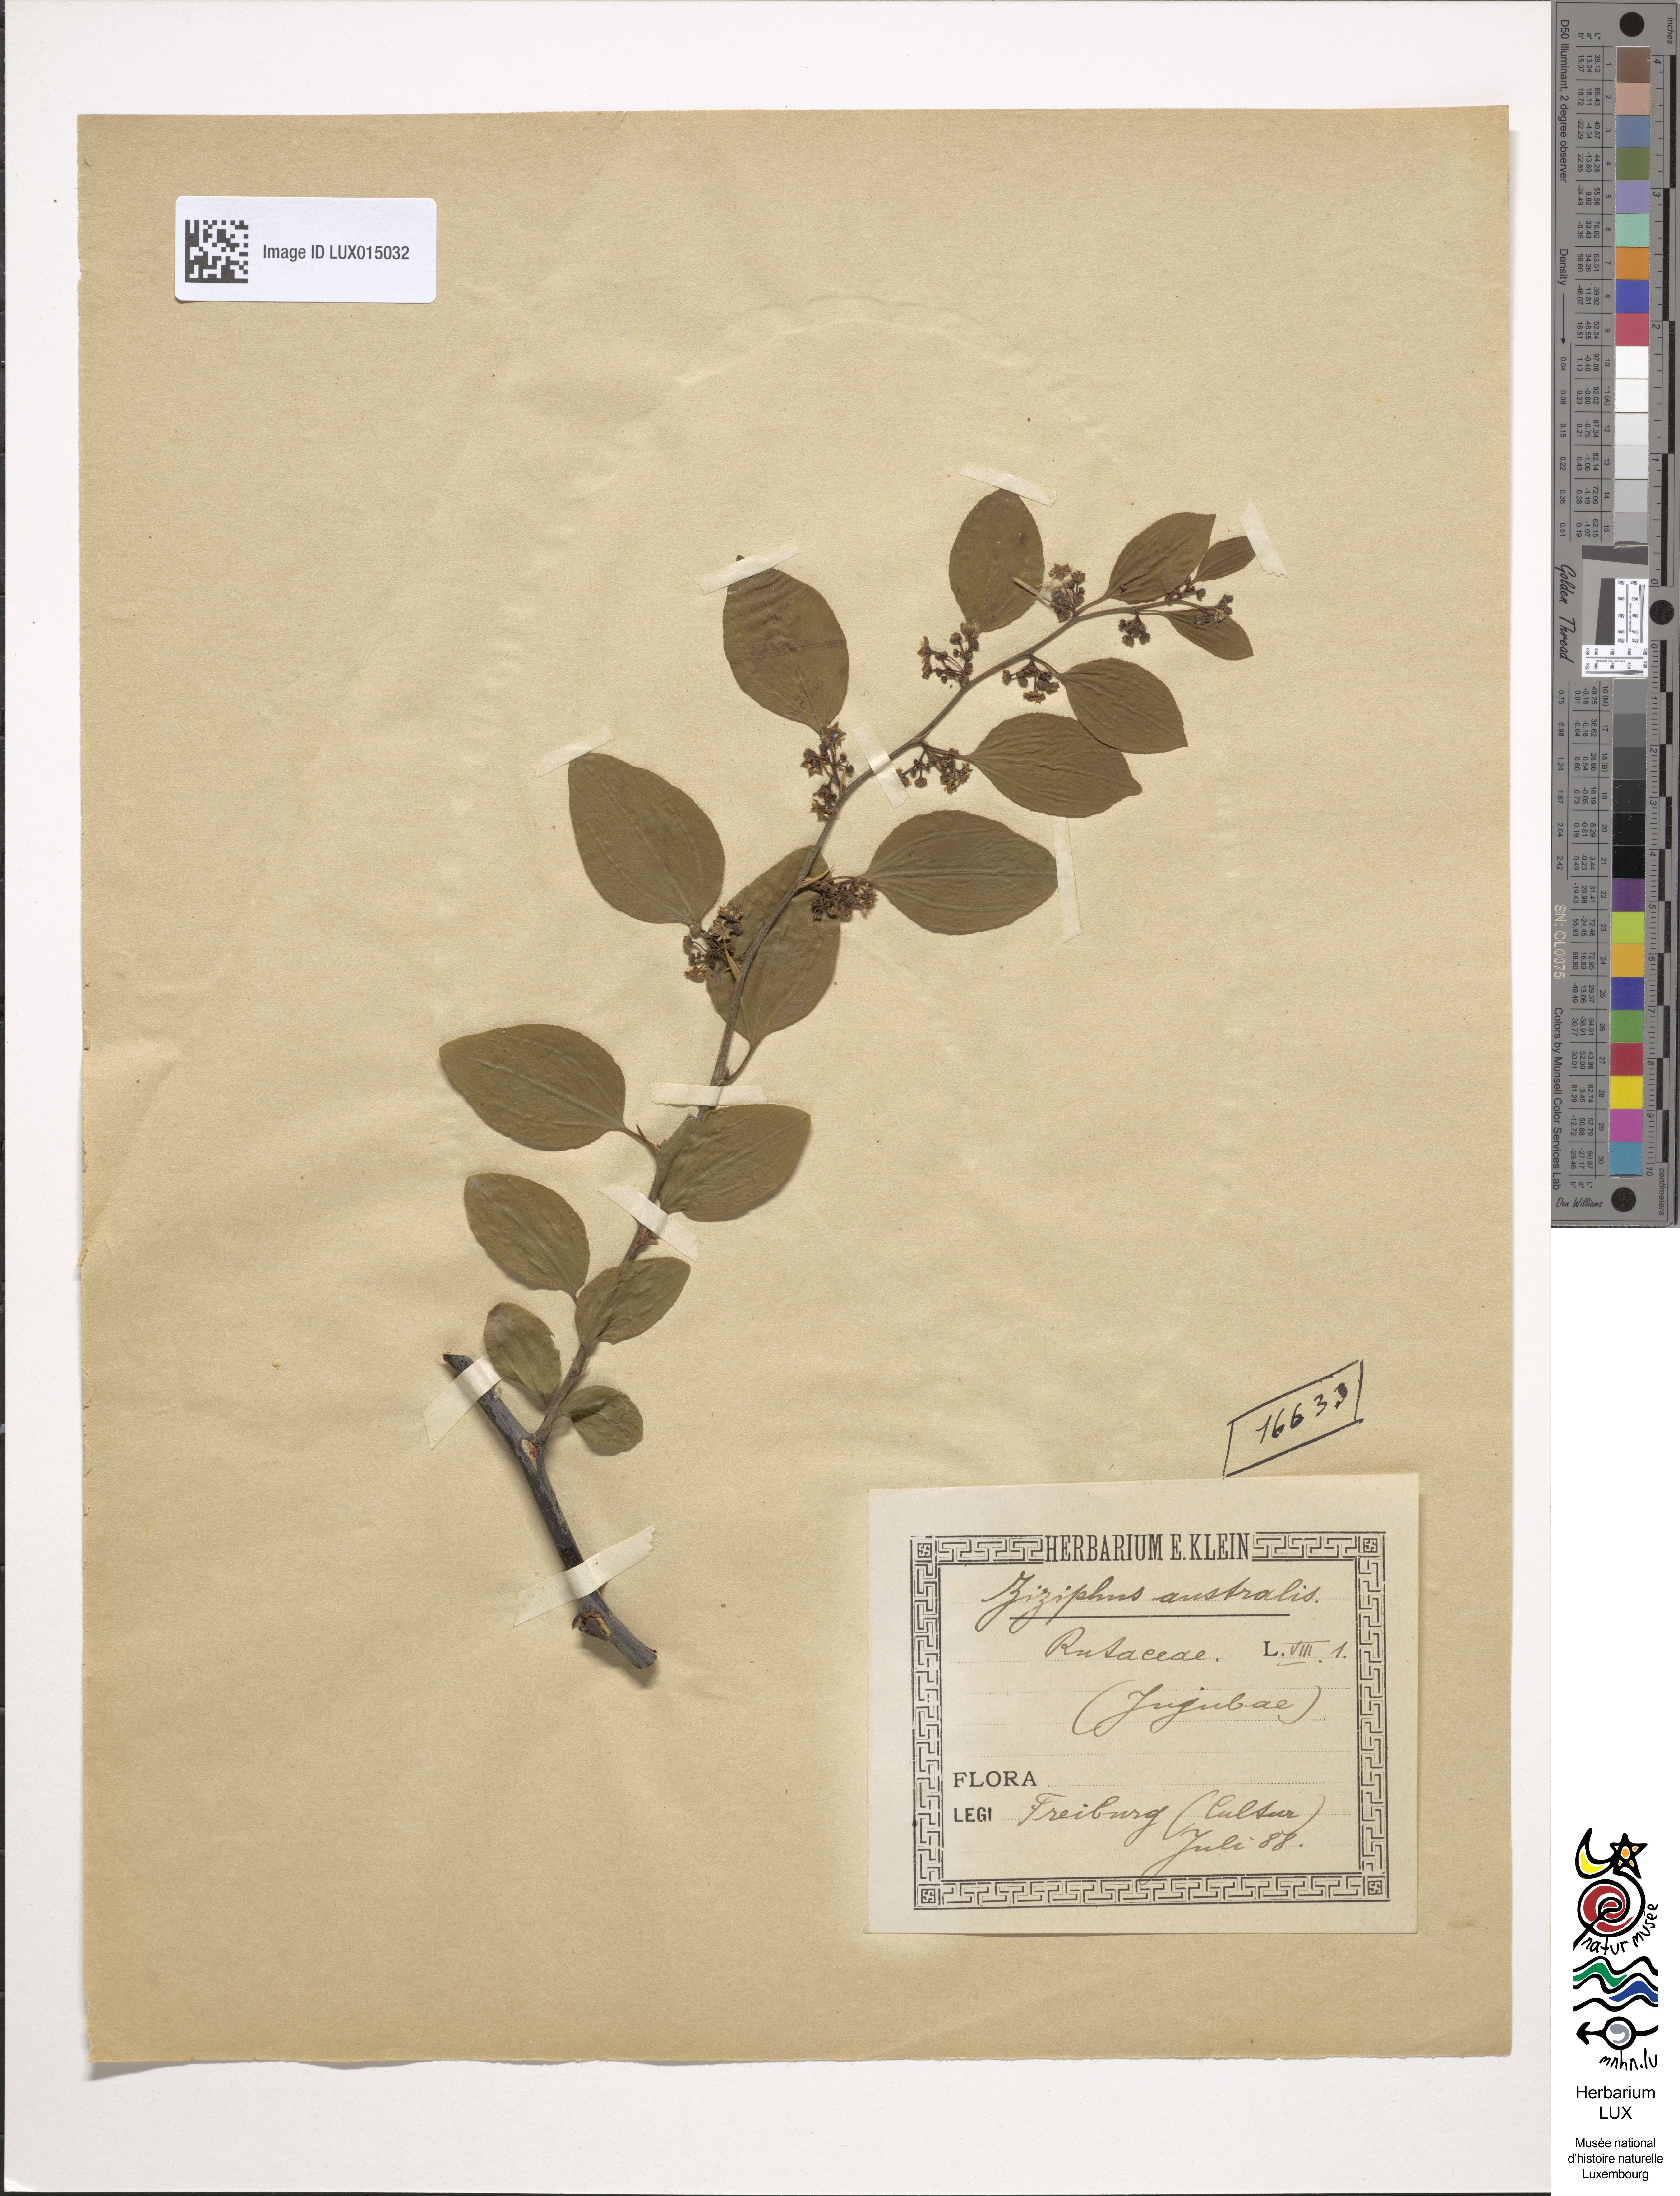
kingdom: Plantae
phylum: Tracheophyta
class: Magnoliopsida
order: Rosales
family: Rhamnaceae
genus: Ziziphus
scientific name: Ziziphus
